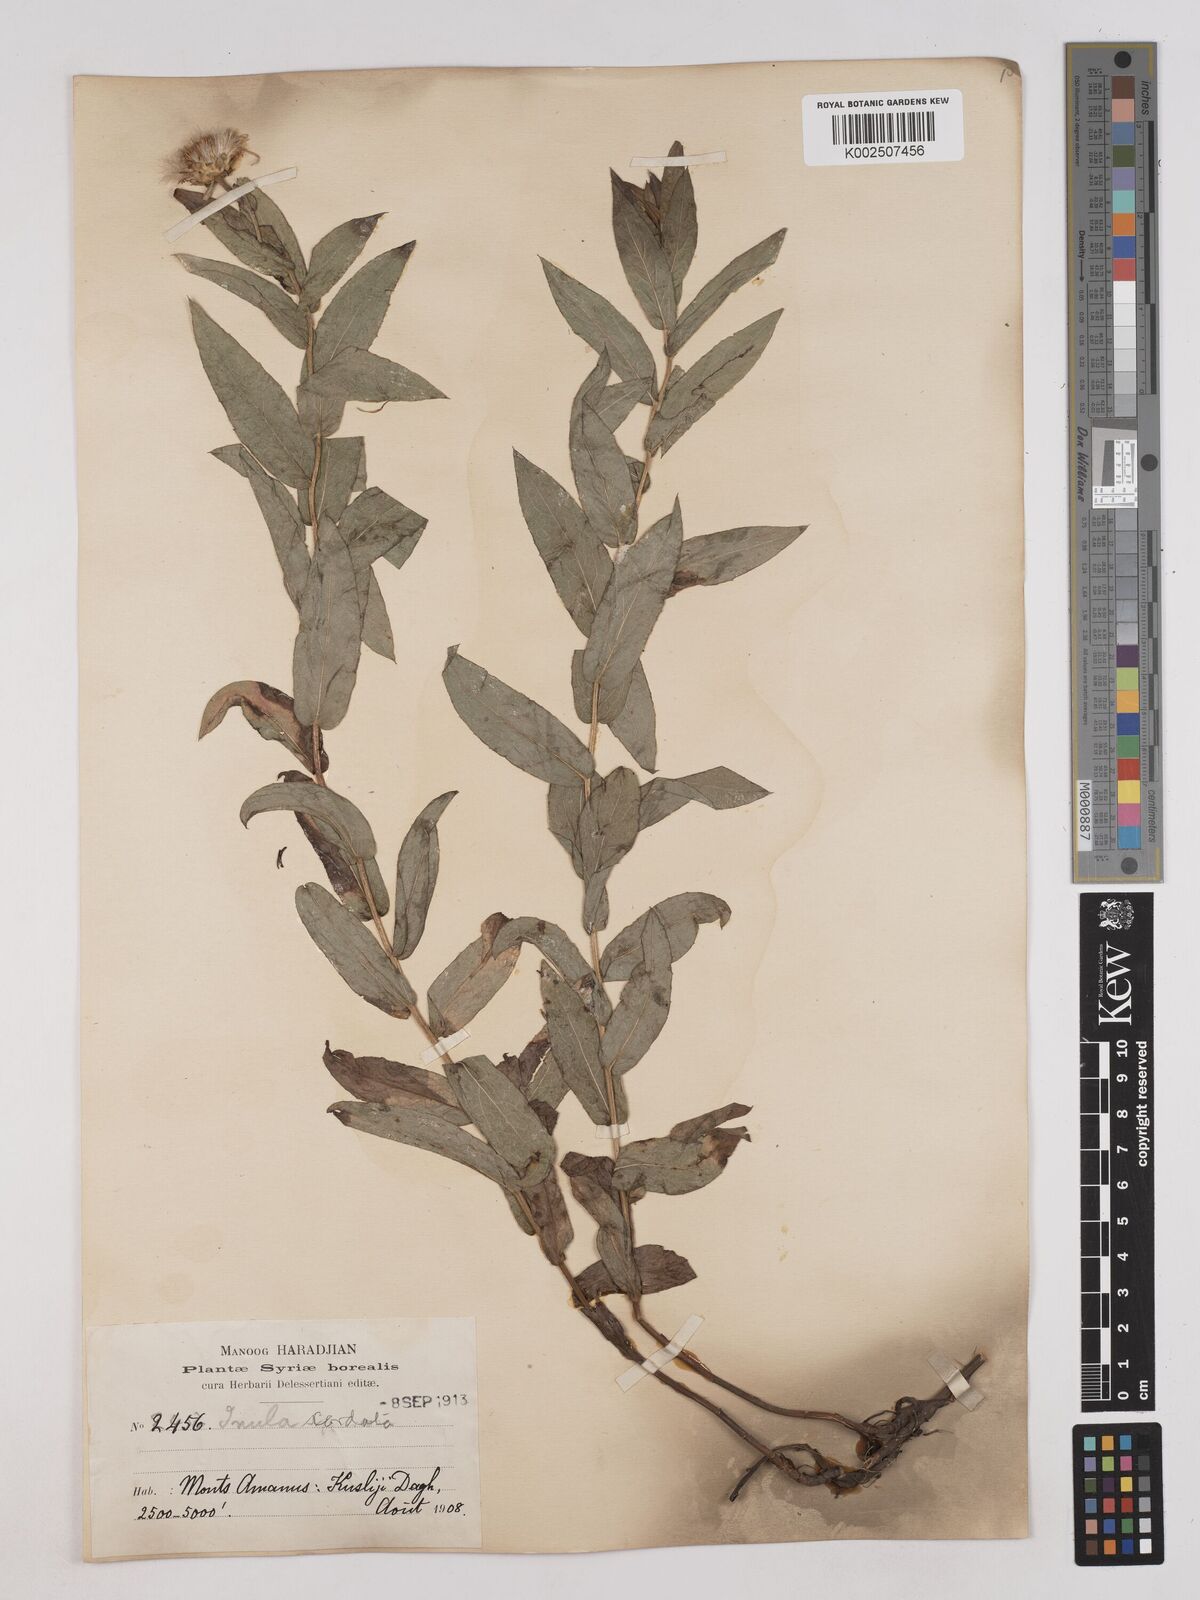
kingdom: Plantae
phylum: Tracheophyta
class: Magnoliopsida
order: Asterales
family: Asteraceae
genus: Pentanema
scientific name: Pentanema salicinum
